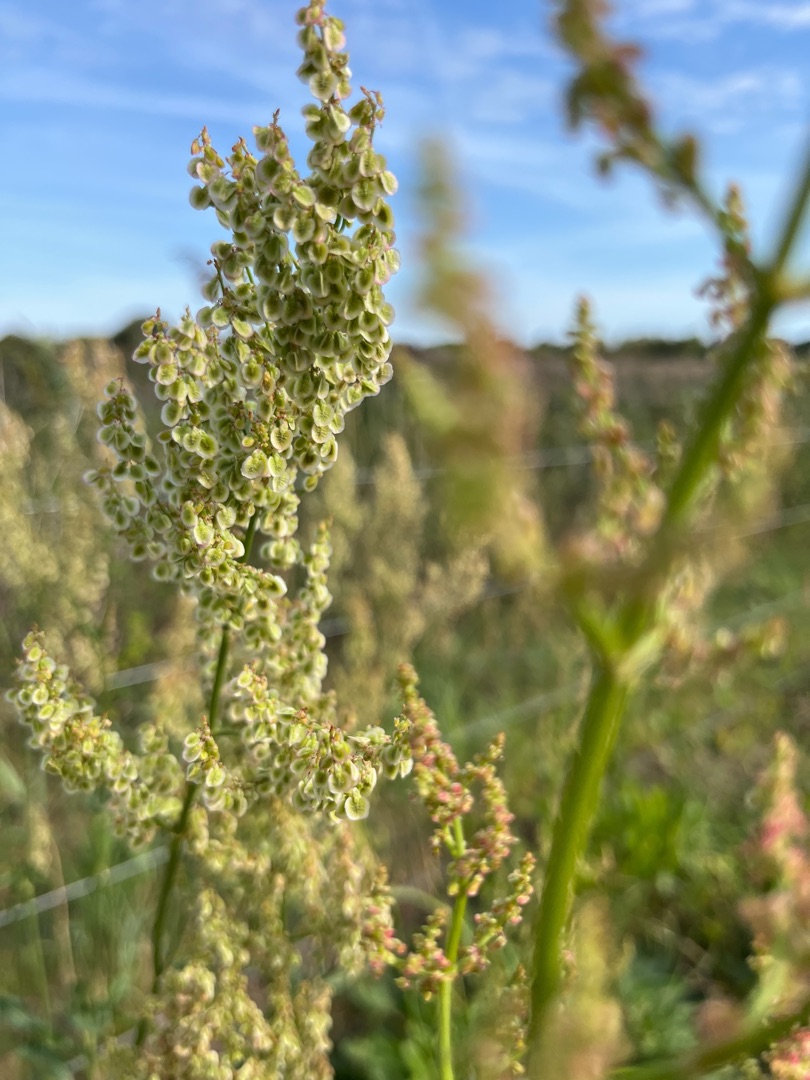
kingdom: Plantae
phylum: Tracheophyta
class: Magnoliopsida
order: Caryophyllales
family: Polygonaceae
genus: Rumex
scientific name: Rumex thyrsiflorus
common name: Dusk-syre
